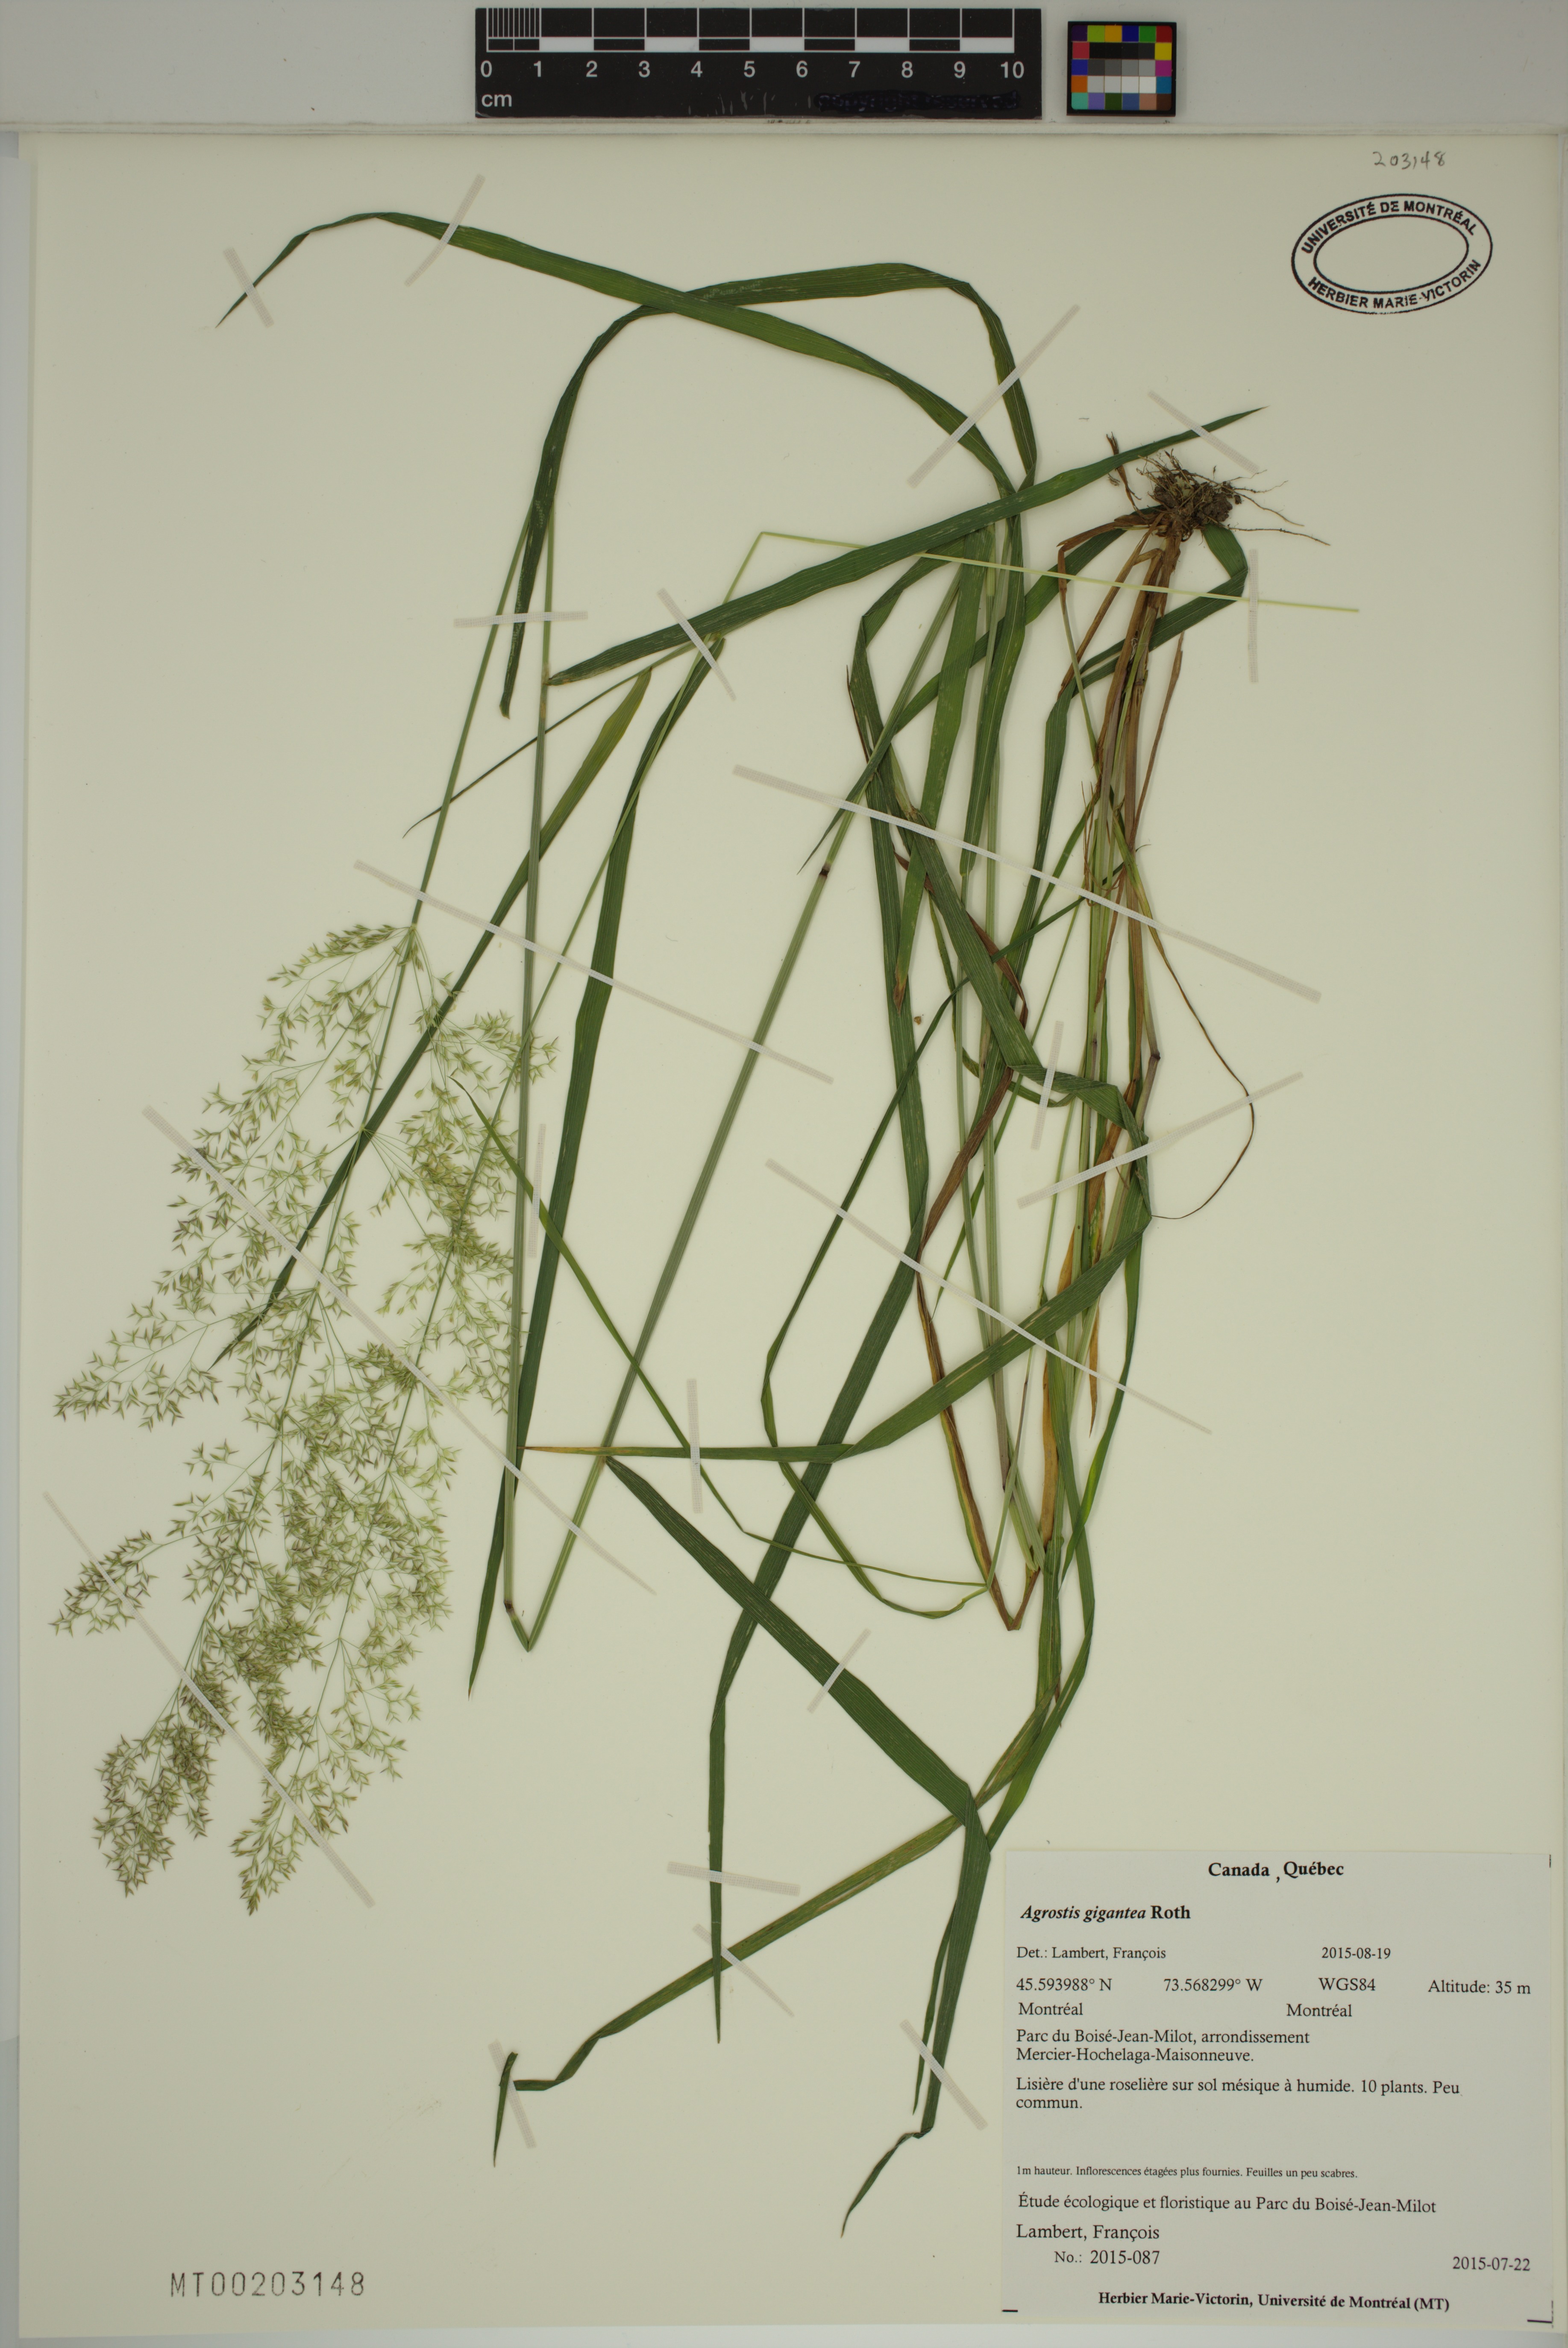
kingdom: Plantae
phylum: Tracheophyta
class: Liliopsida
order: Poales
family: Poaceae
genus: Agrostis
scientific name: Agrostis gigantea
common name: Black bent
